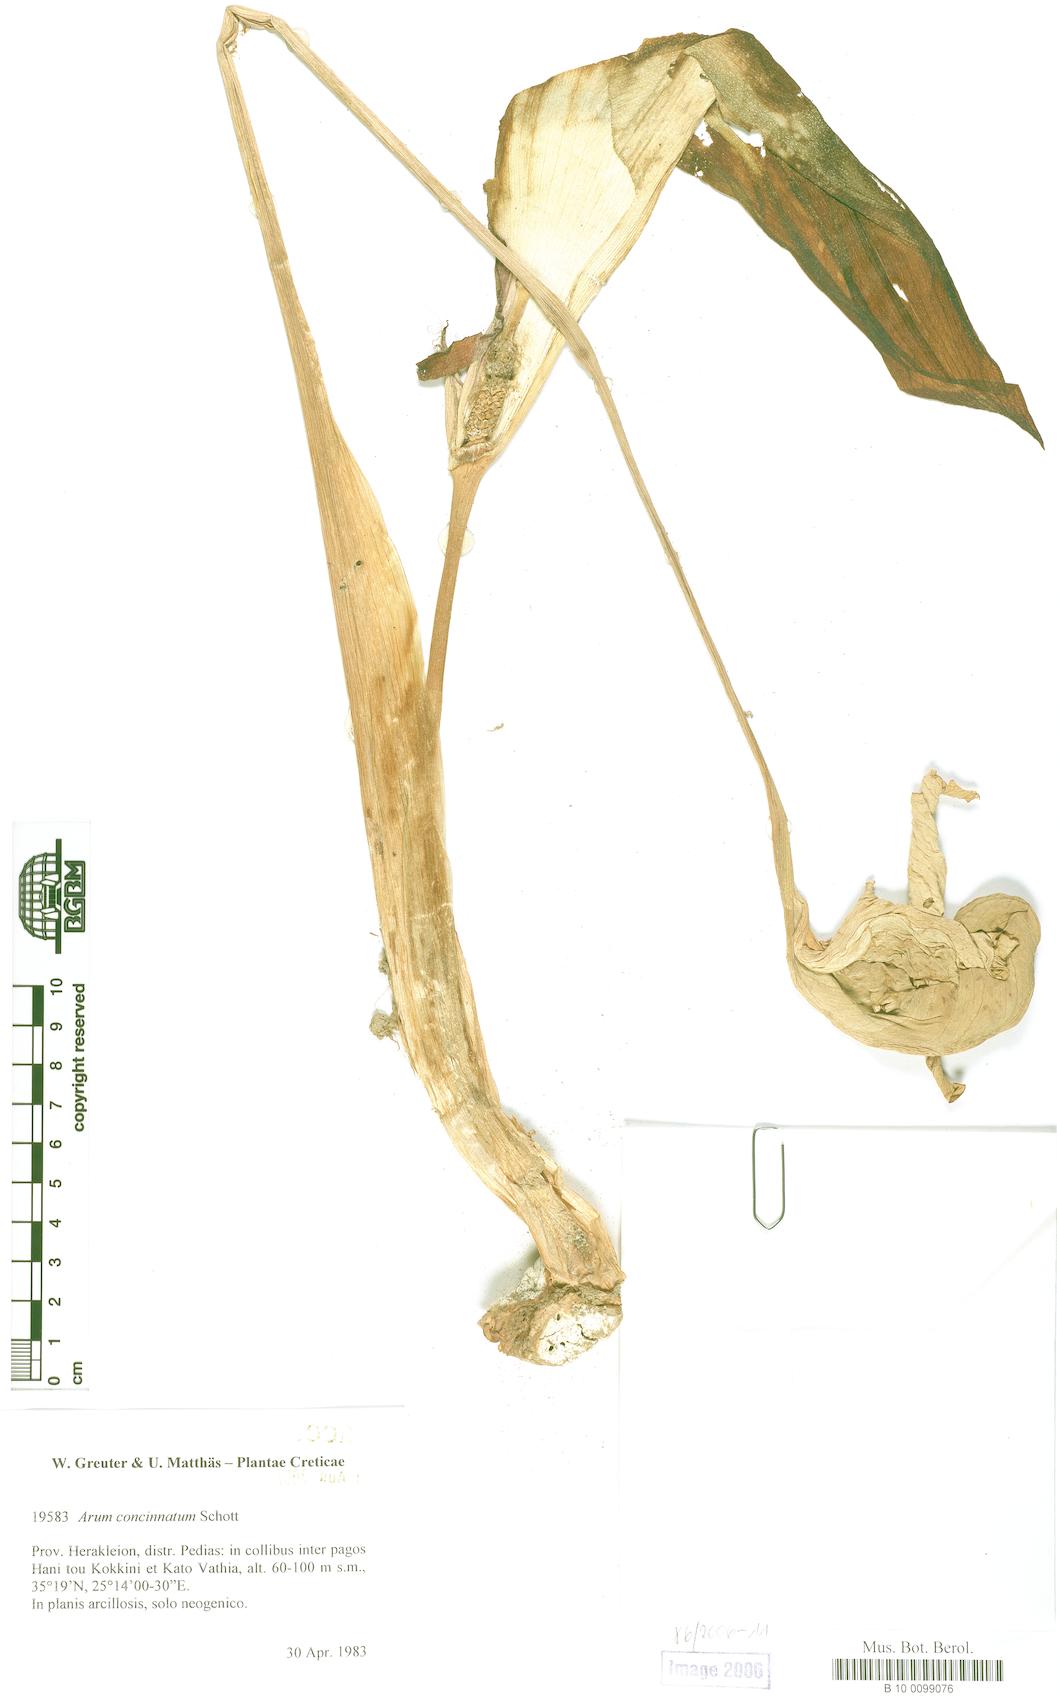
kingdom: Plantae
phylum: Tracheophyta
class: Liliopsida
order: Alismatales
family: Araceae
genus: Arum
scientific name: Arum concinnatum
